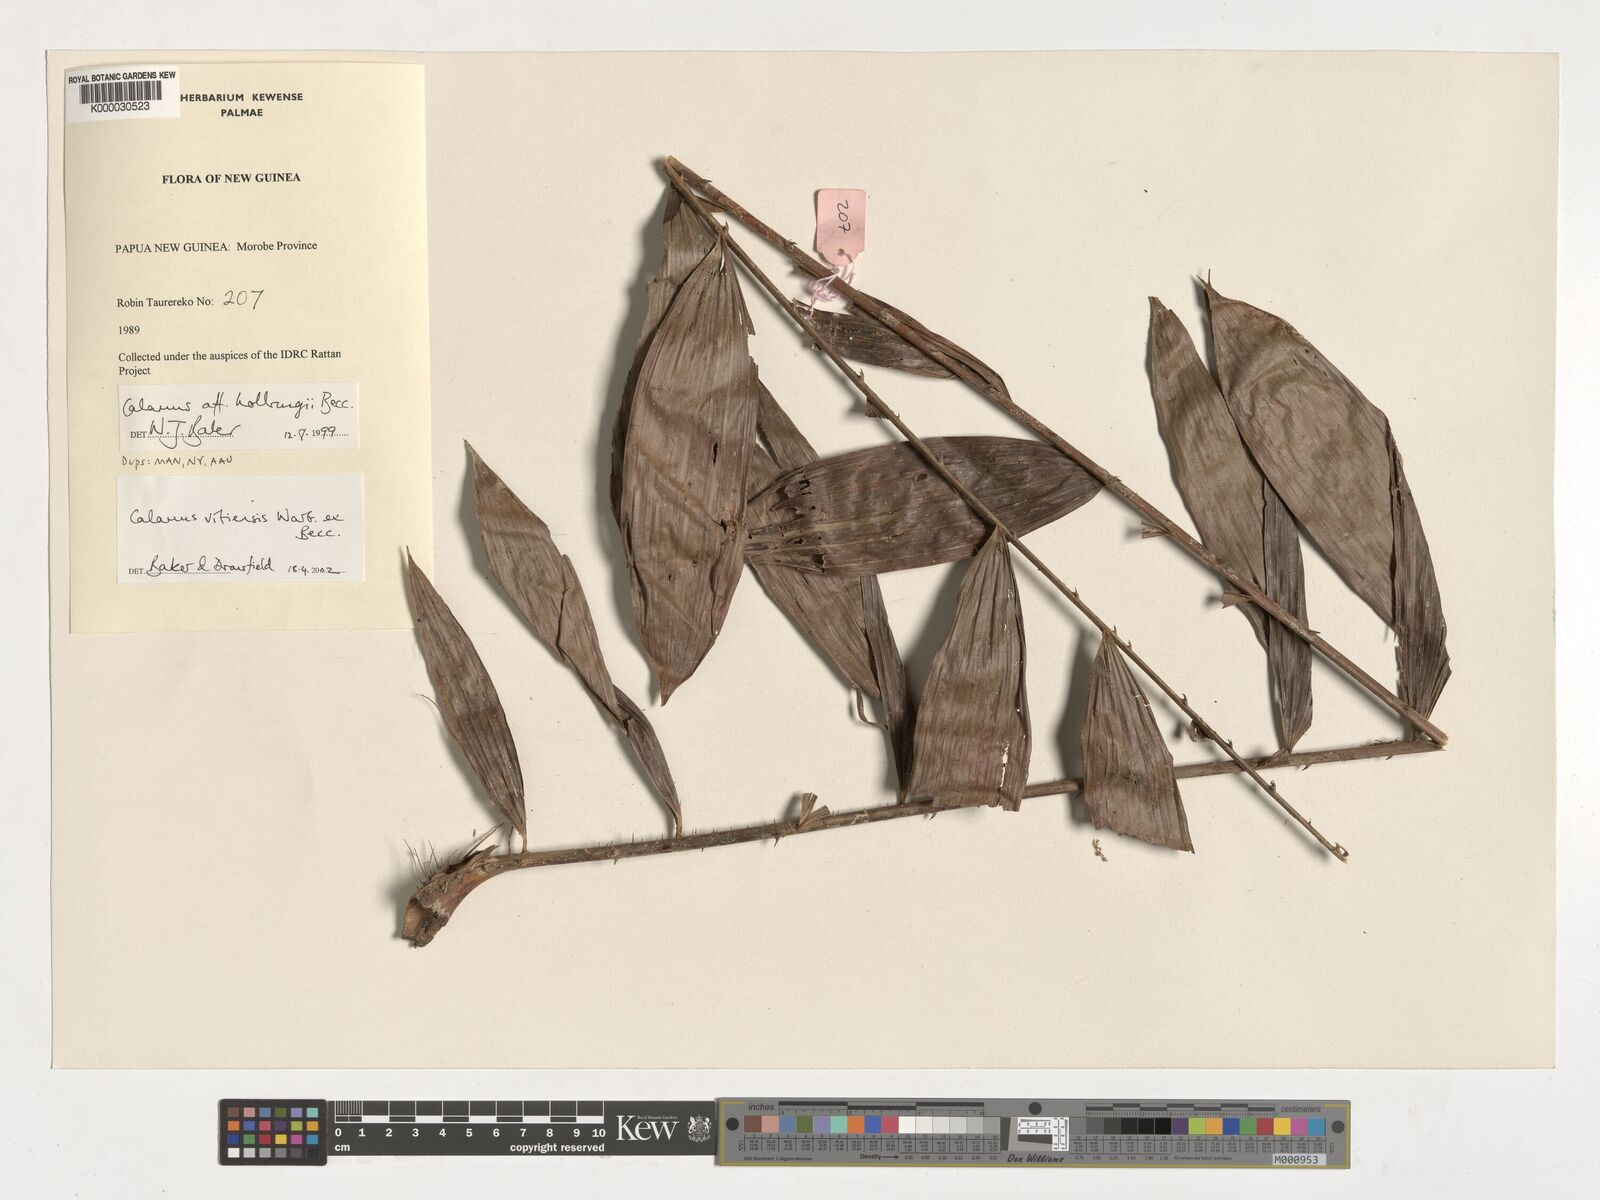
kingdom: Plantae
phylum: Tracheophyta
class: Liliopsida
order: Arecales
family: Arecaceae
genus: Calamus
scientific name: Calamus vitiensis
